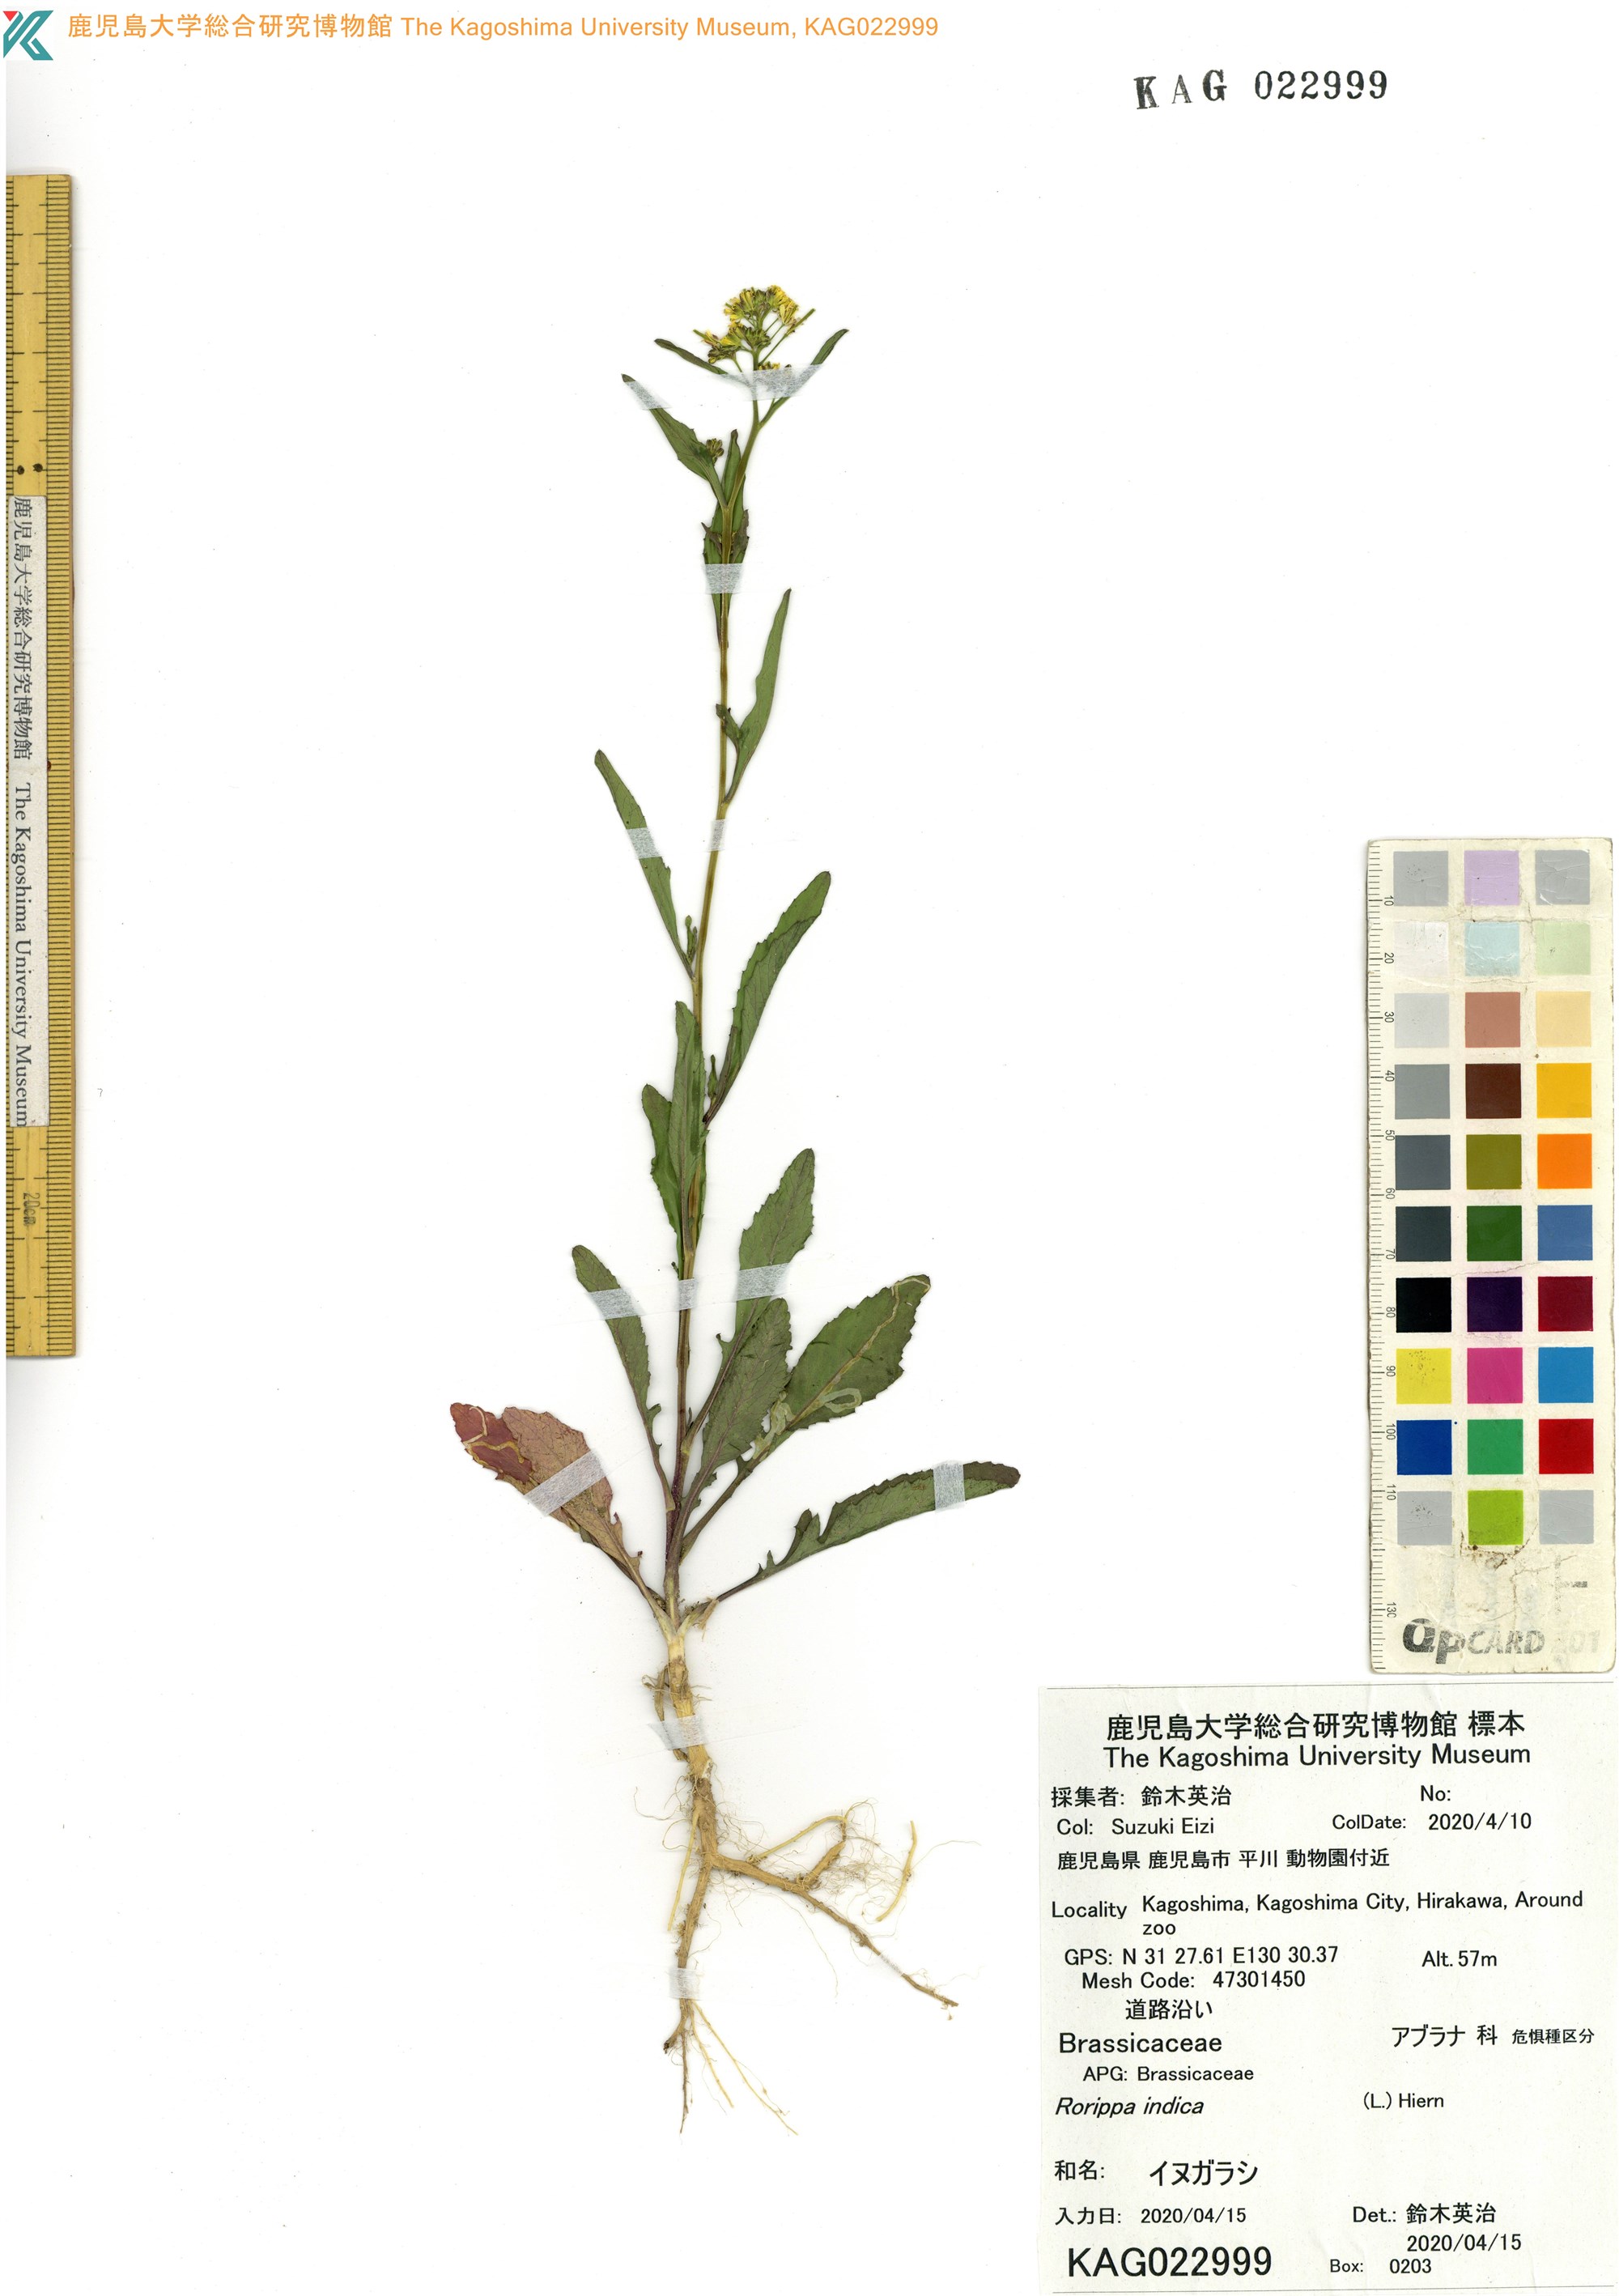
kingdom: Plantae
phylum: Tracheophyta
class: Magnoliopsida
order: Brassicales
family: Brassicaceae
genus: Rorippa
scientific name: Rorippa indica
